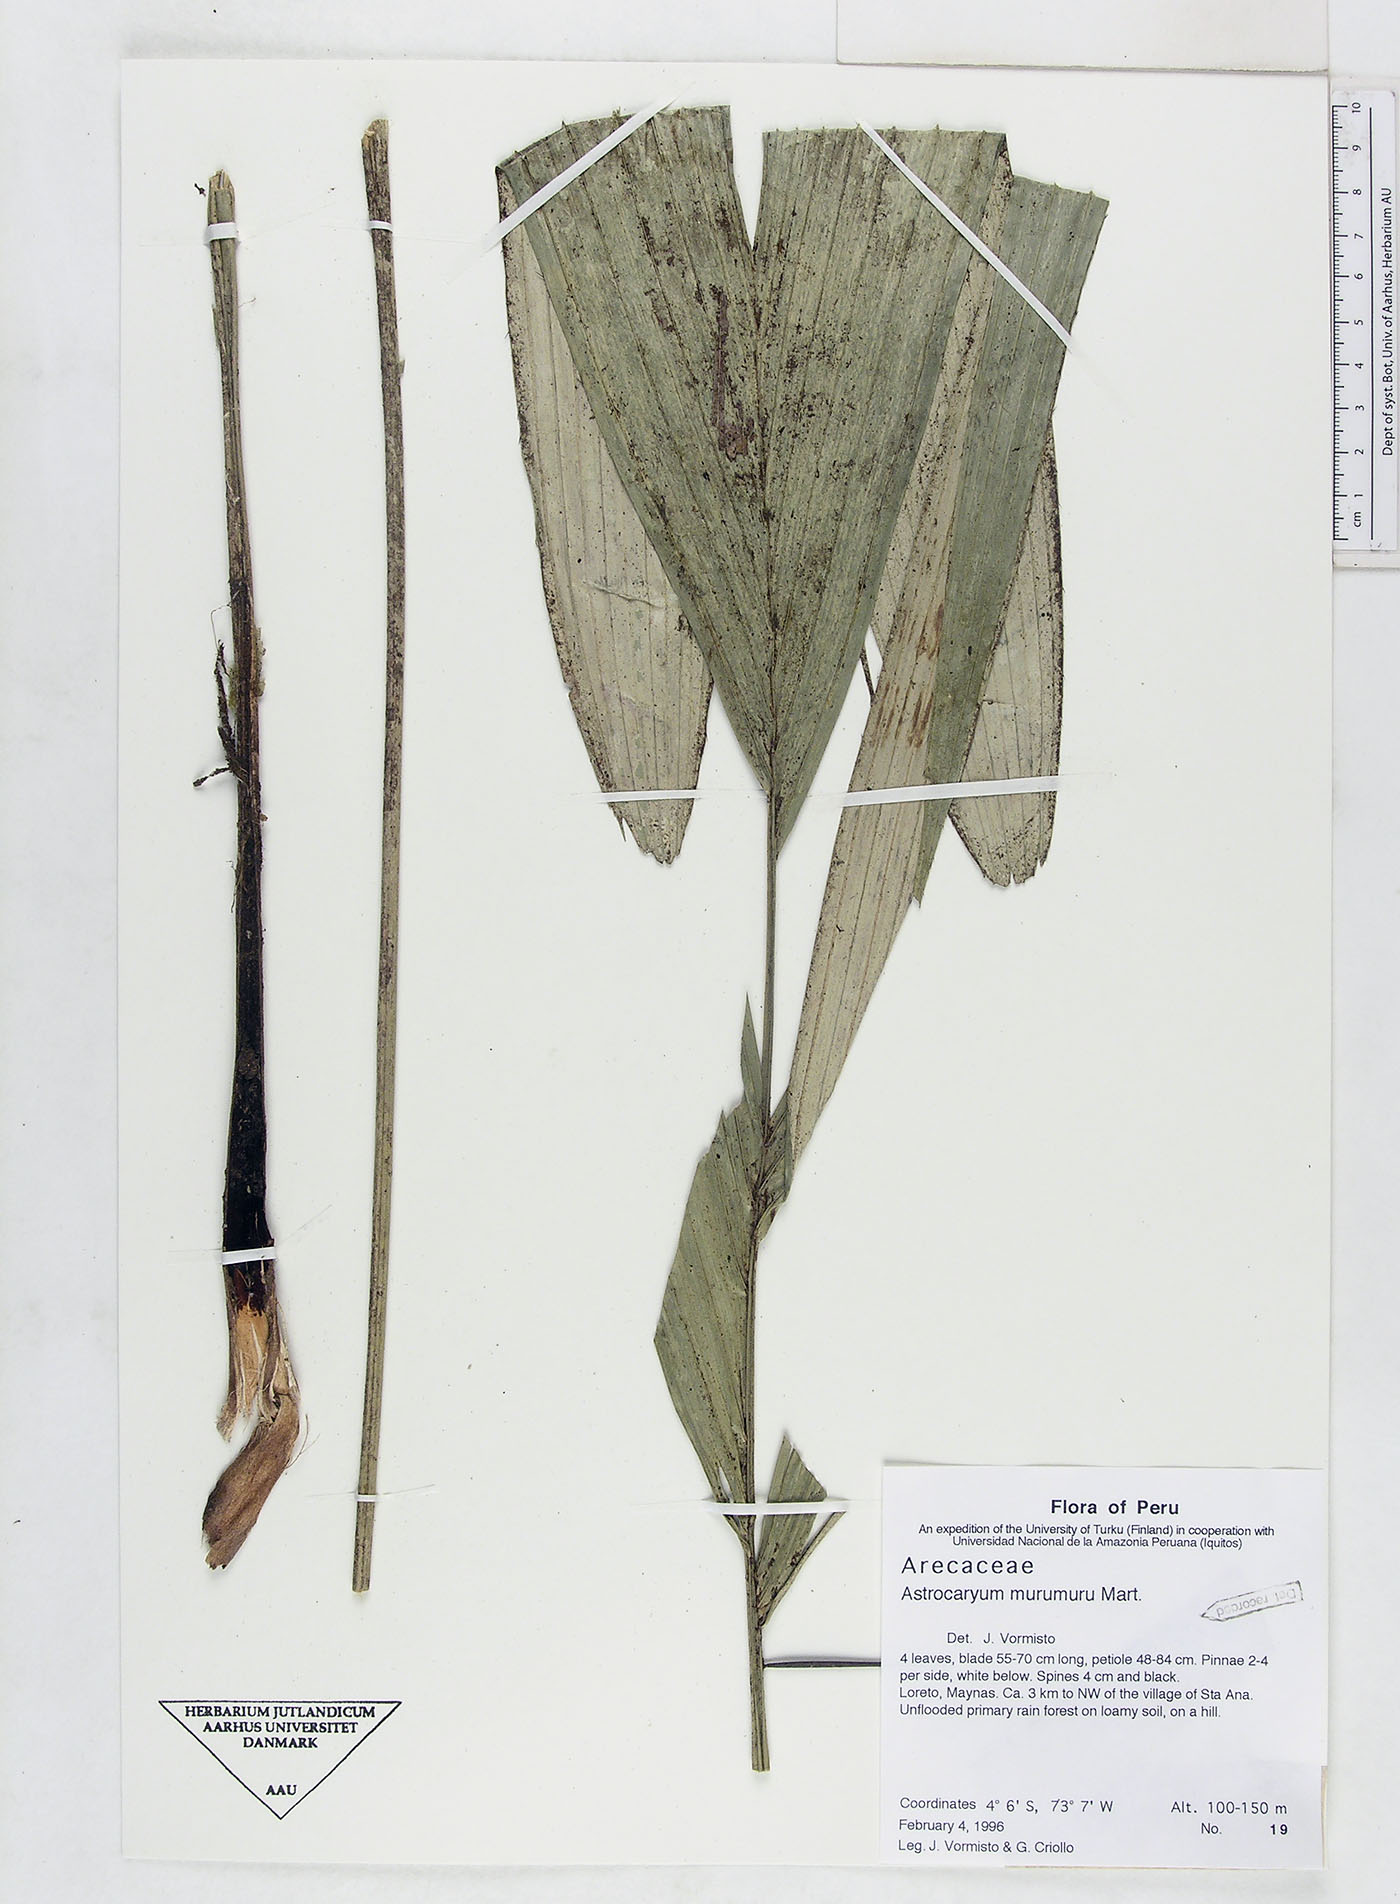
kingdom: Plantae
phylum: Tracheophyta
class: Liliopsida
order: Arecales
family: Arecaceae
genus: Astrocaryum
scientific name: Astrocaryum murumuru
